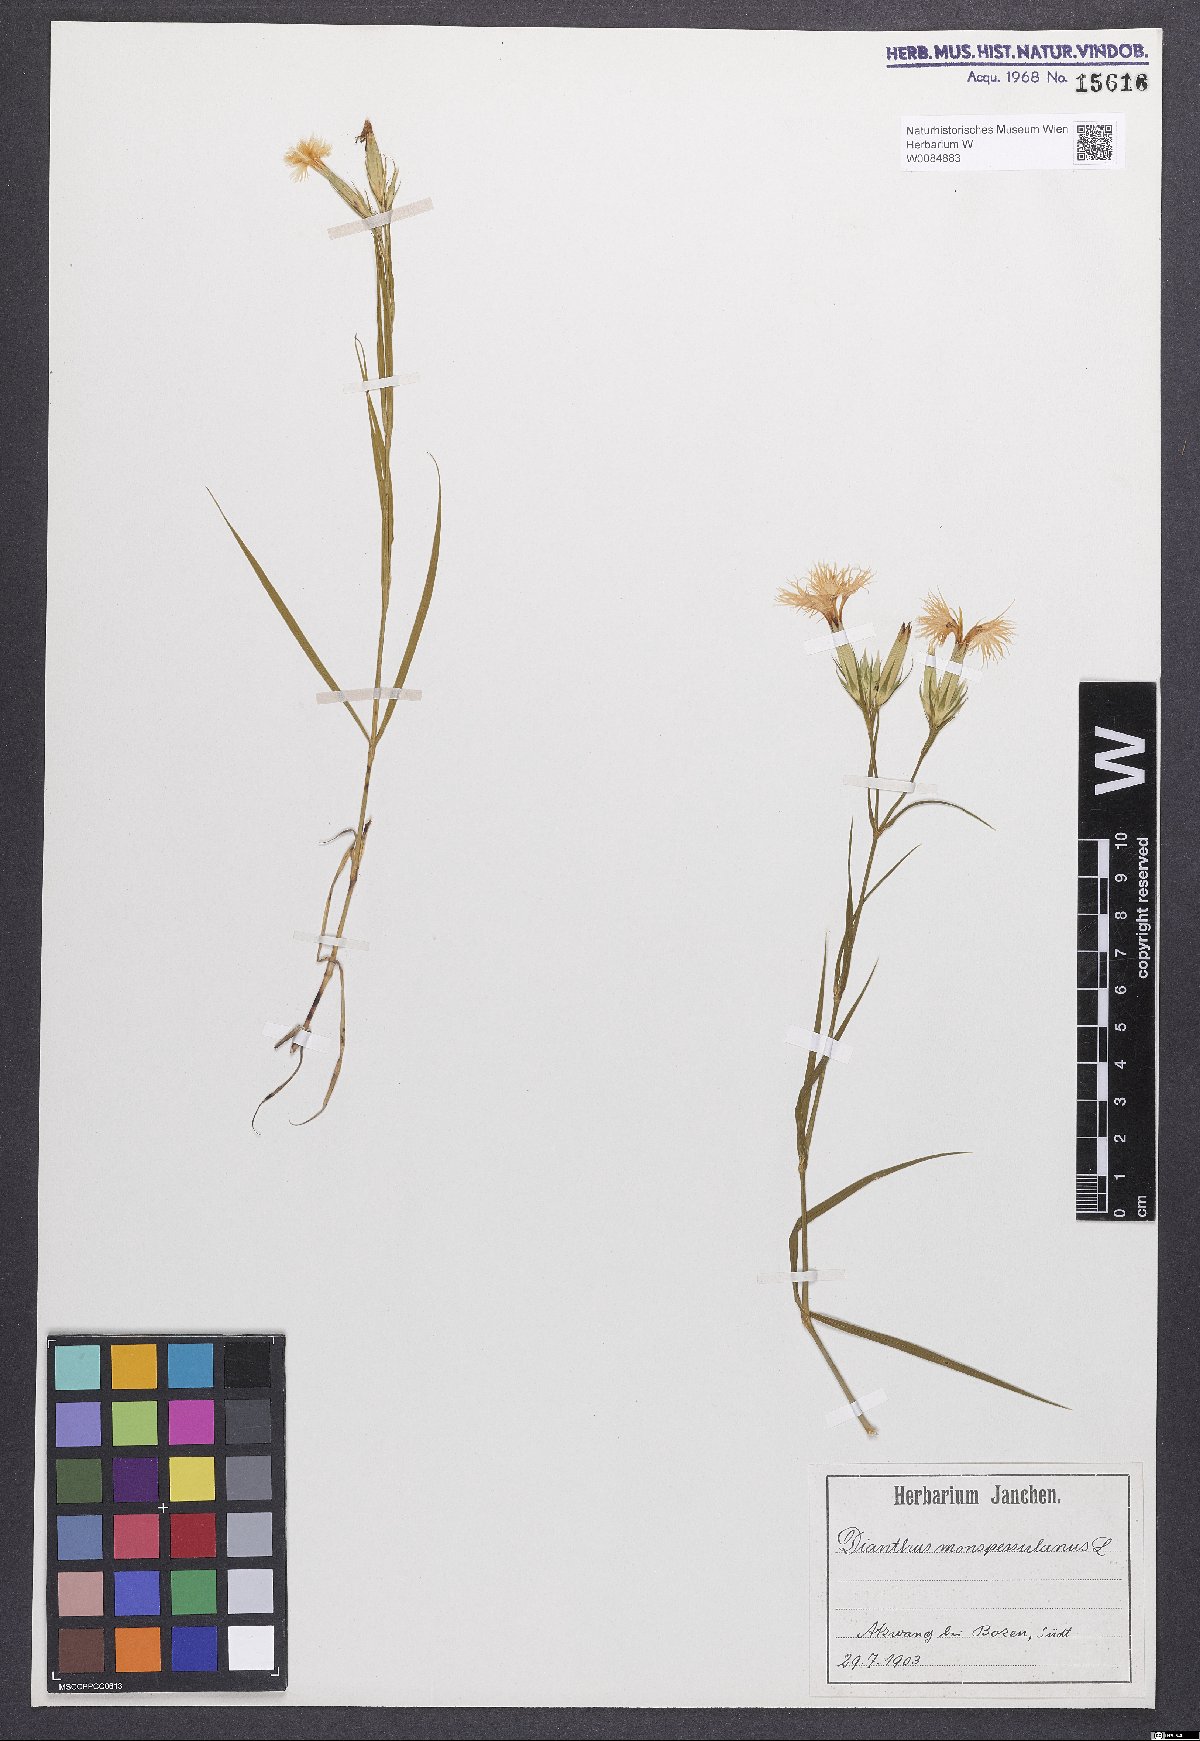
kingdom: Plantae
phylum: Tracheophyta
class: Magnoliopsida
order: Caryophyllales
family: Caryophyllaceae
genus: Dianthus
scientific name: Dianthus hyssopifolius
